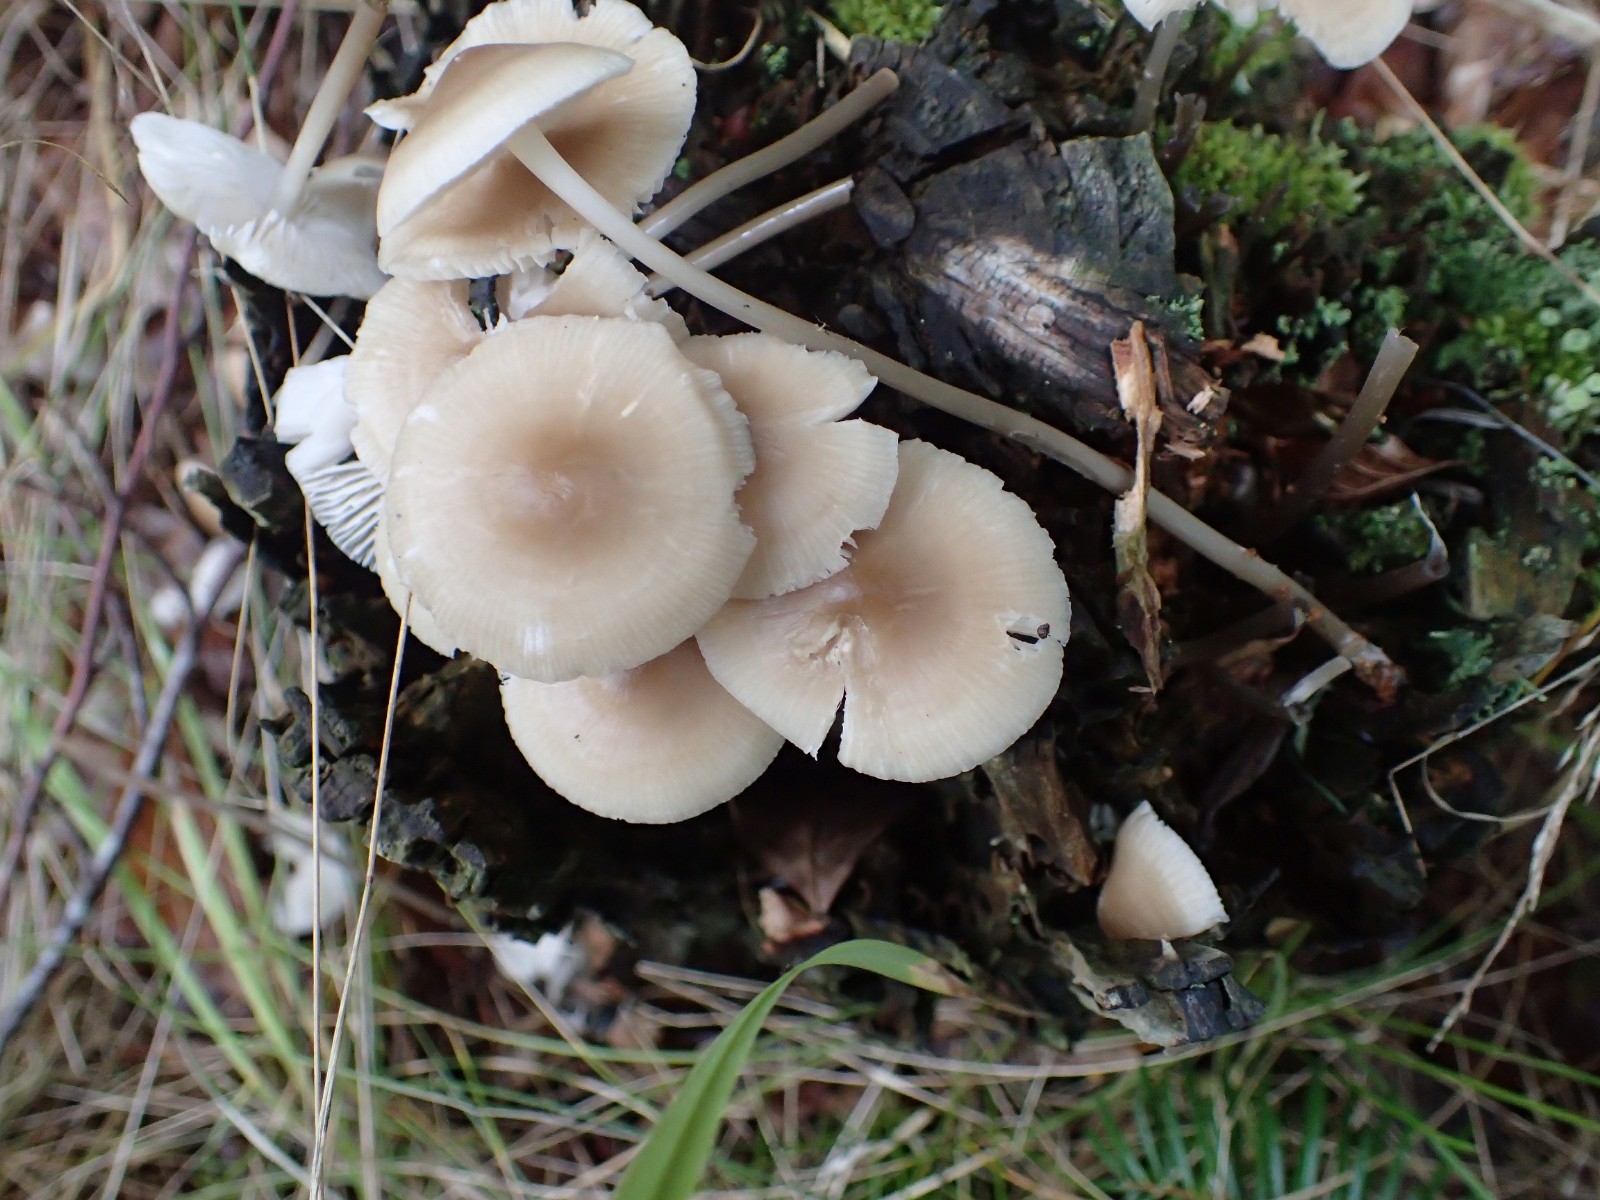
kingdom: Fungi
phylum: Basidiomycota
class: Agaricomycetes
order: Agaricales
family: Mycenaceae
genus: Mycena
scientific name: Mycena
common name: huesvamp
